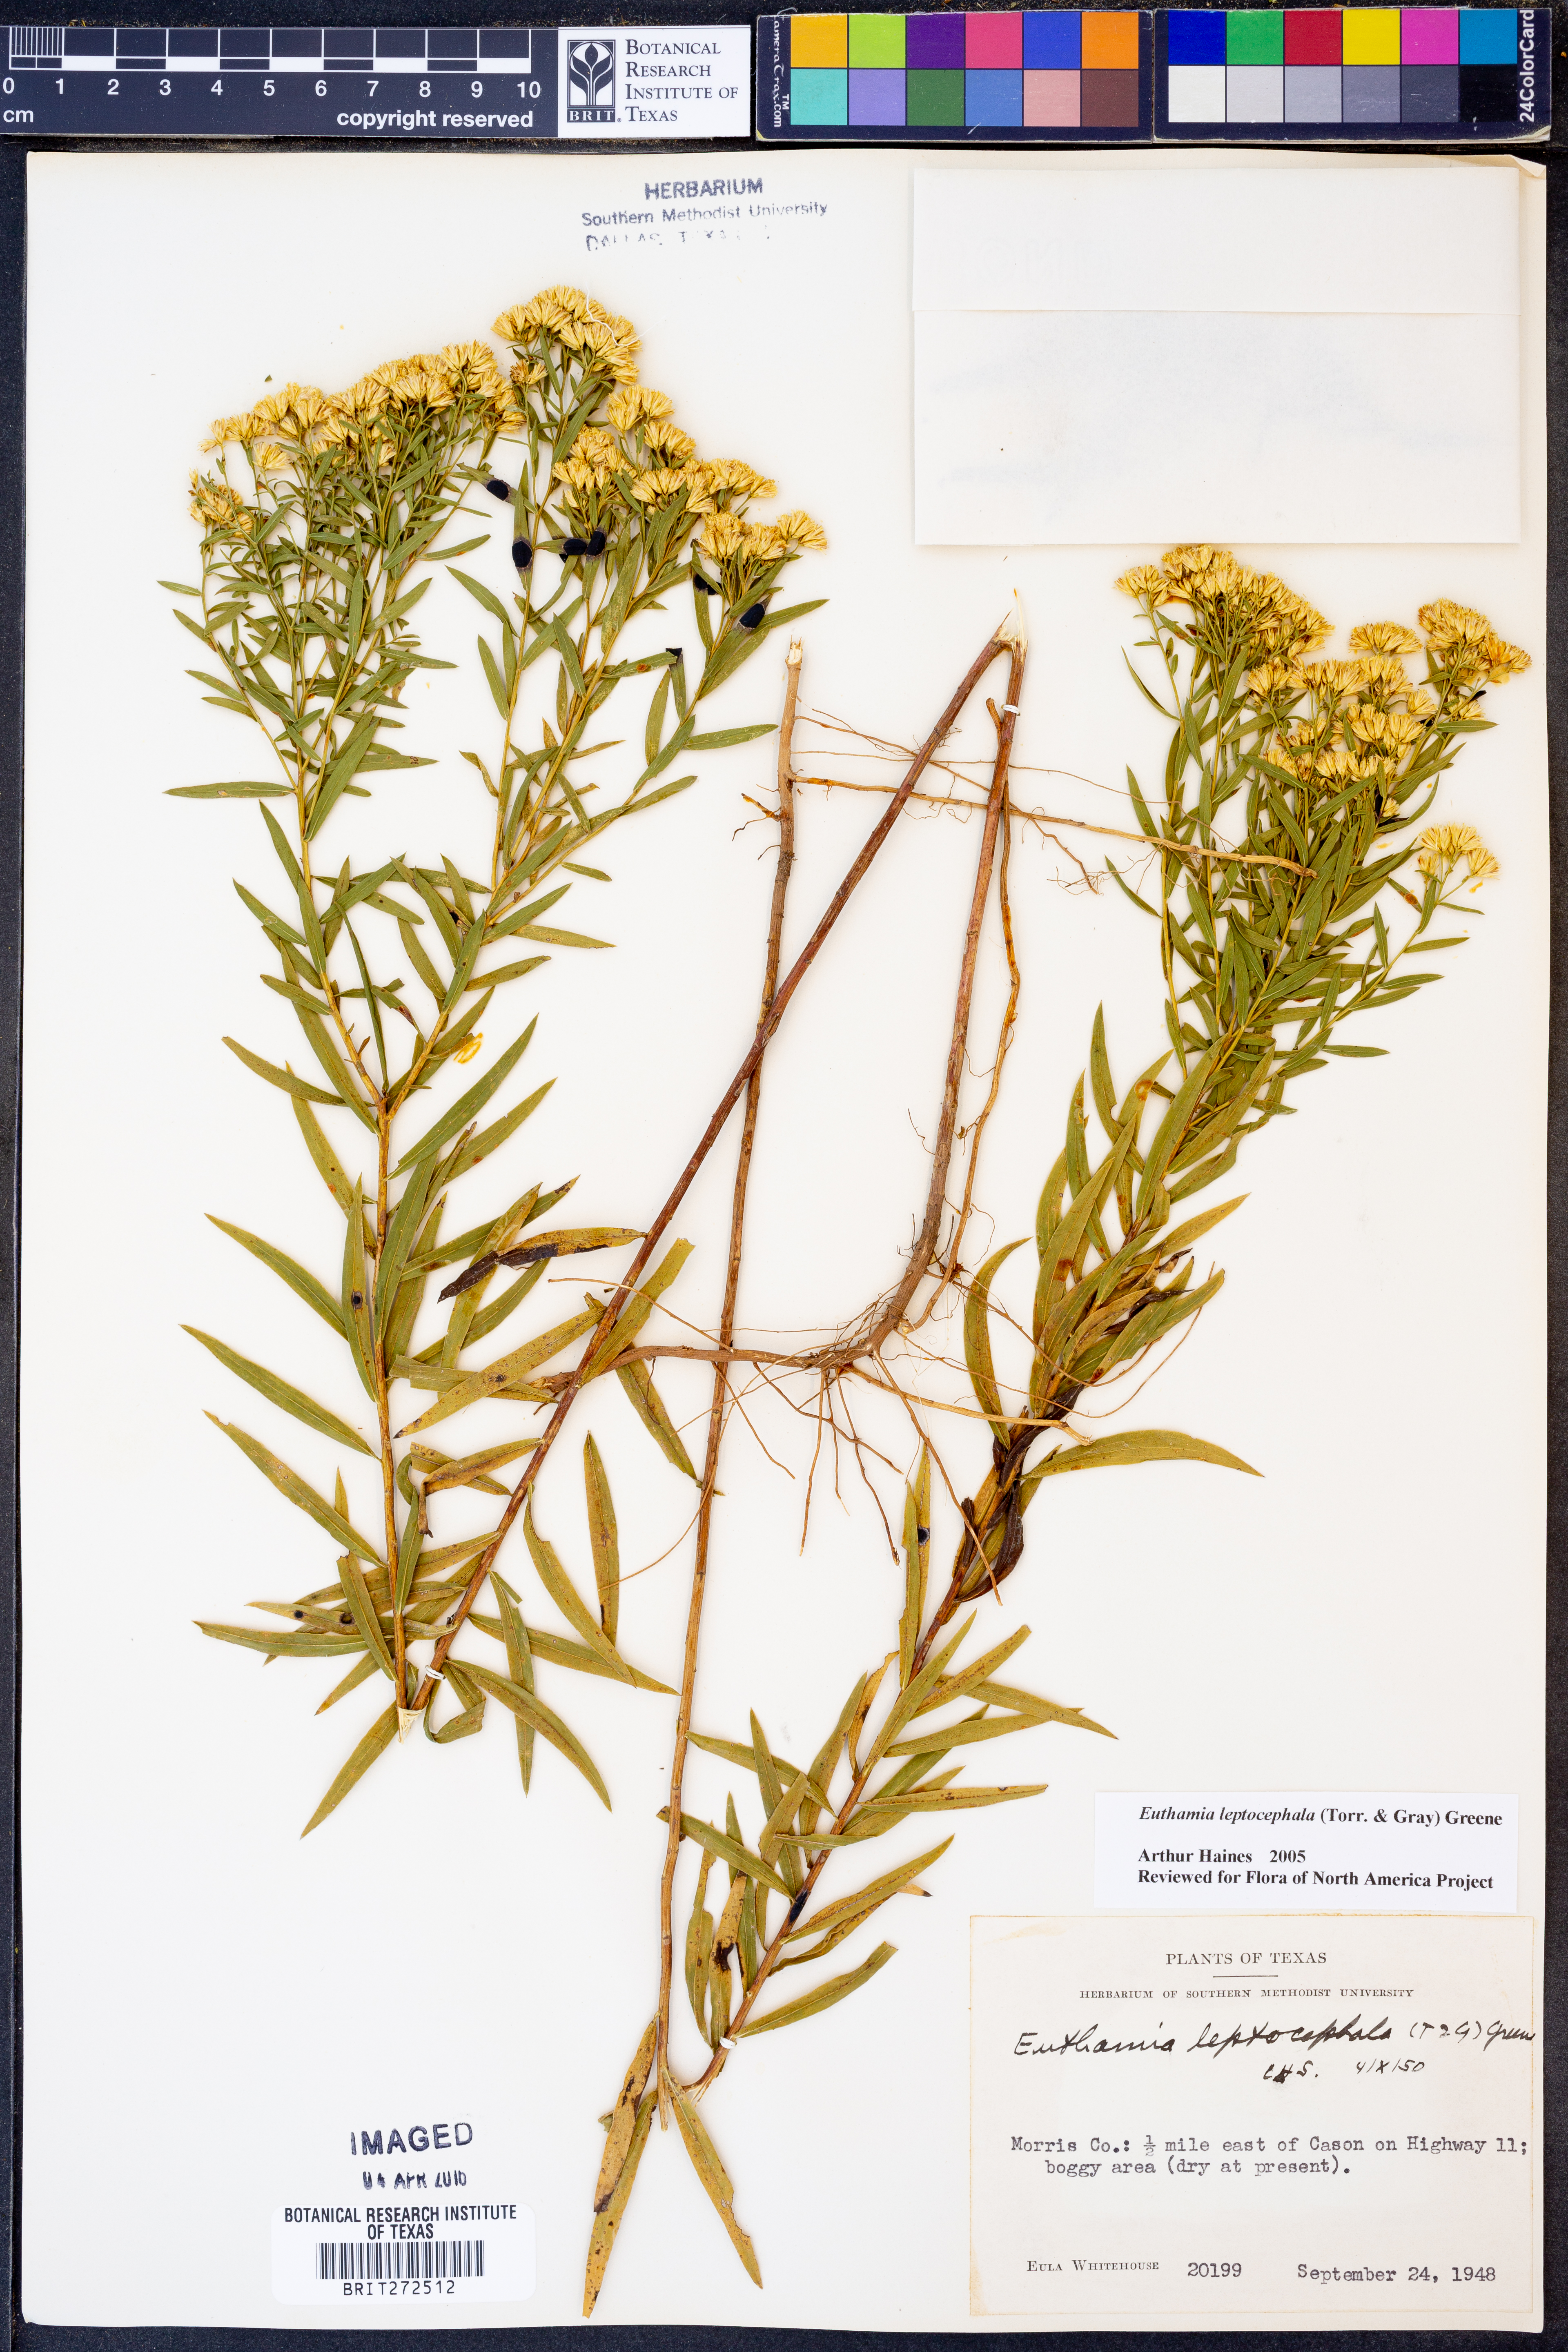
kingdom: Plantae
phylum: Tracheophyta
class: Magnoliopsida
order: Asterales
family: Asteraceae
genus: Euthamia
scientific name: Euthamia leptocephala
